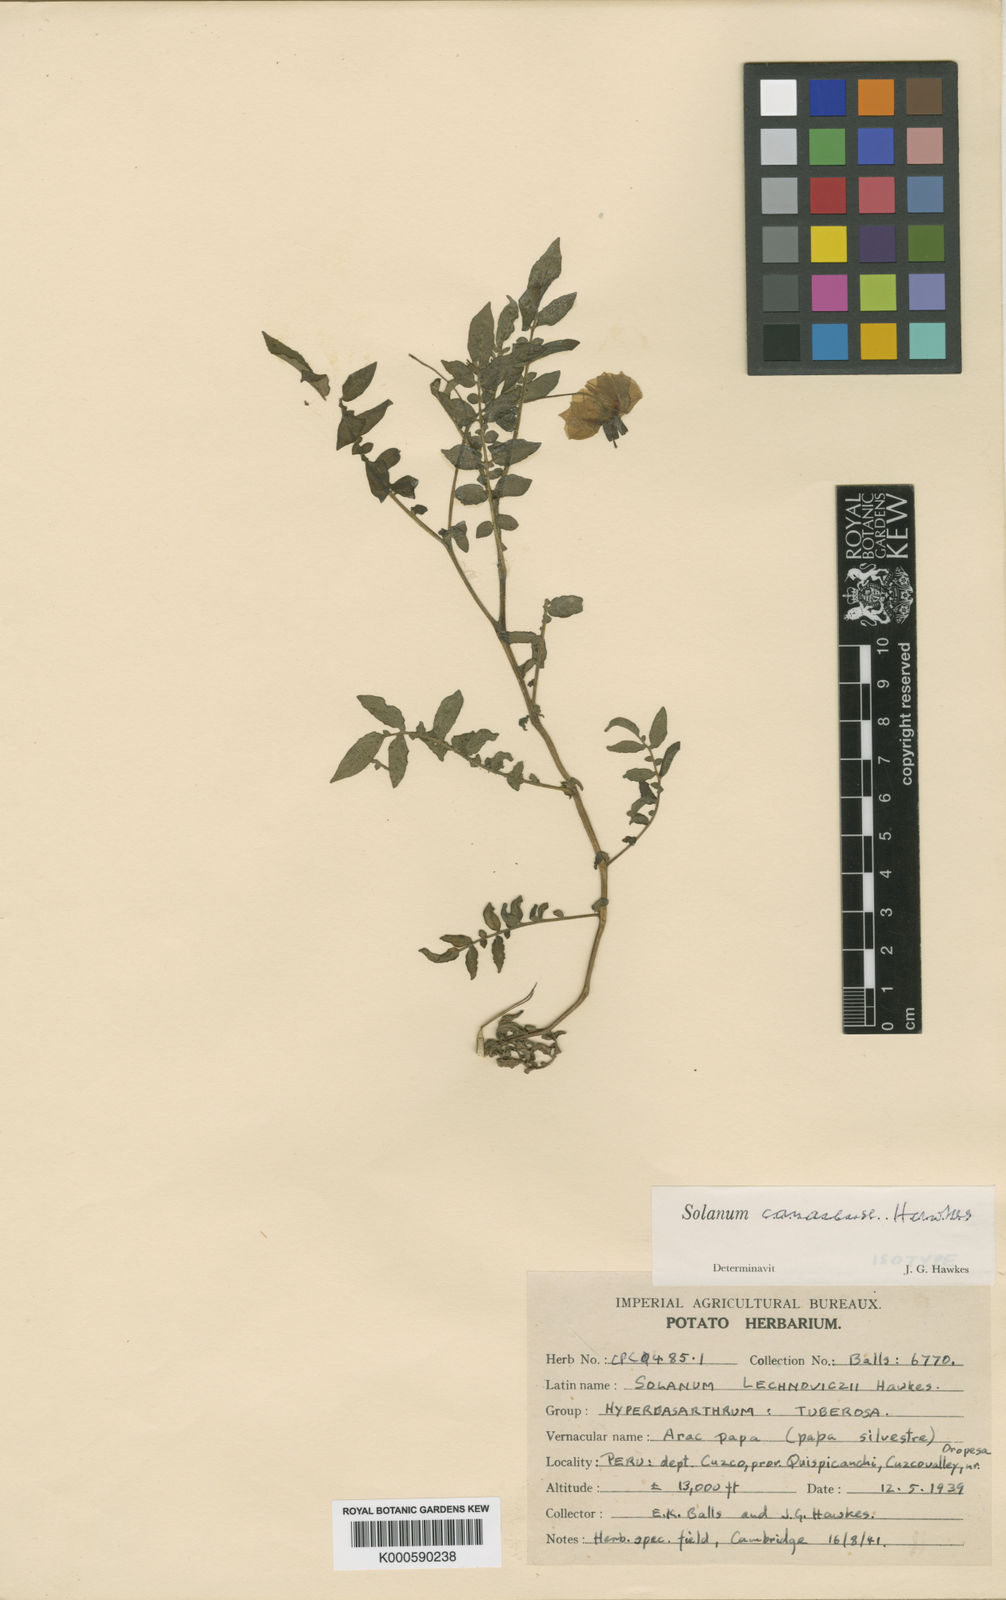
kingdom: Plantae
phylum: Tracheophyta
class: Magnoliopsida
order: Solanales
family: Solanaceae
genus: Solanum
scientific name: Solanum candolleanum
